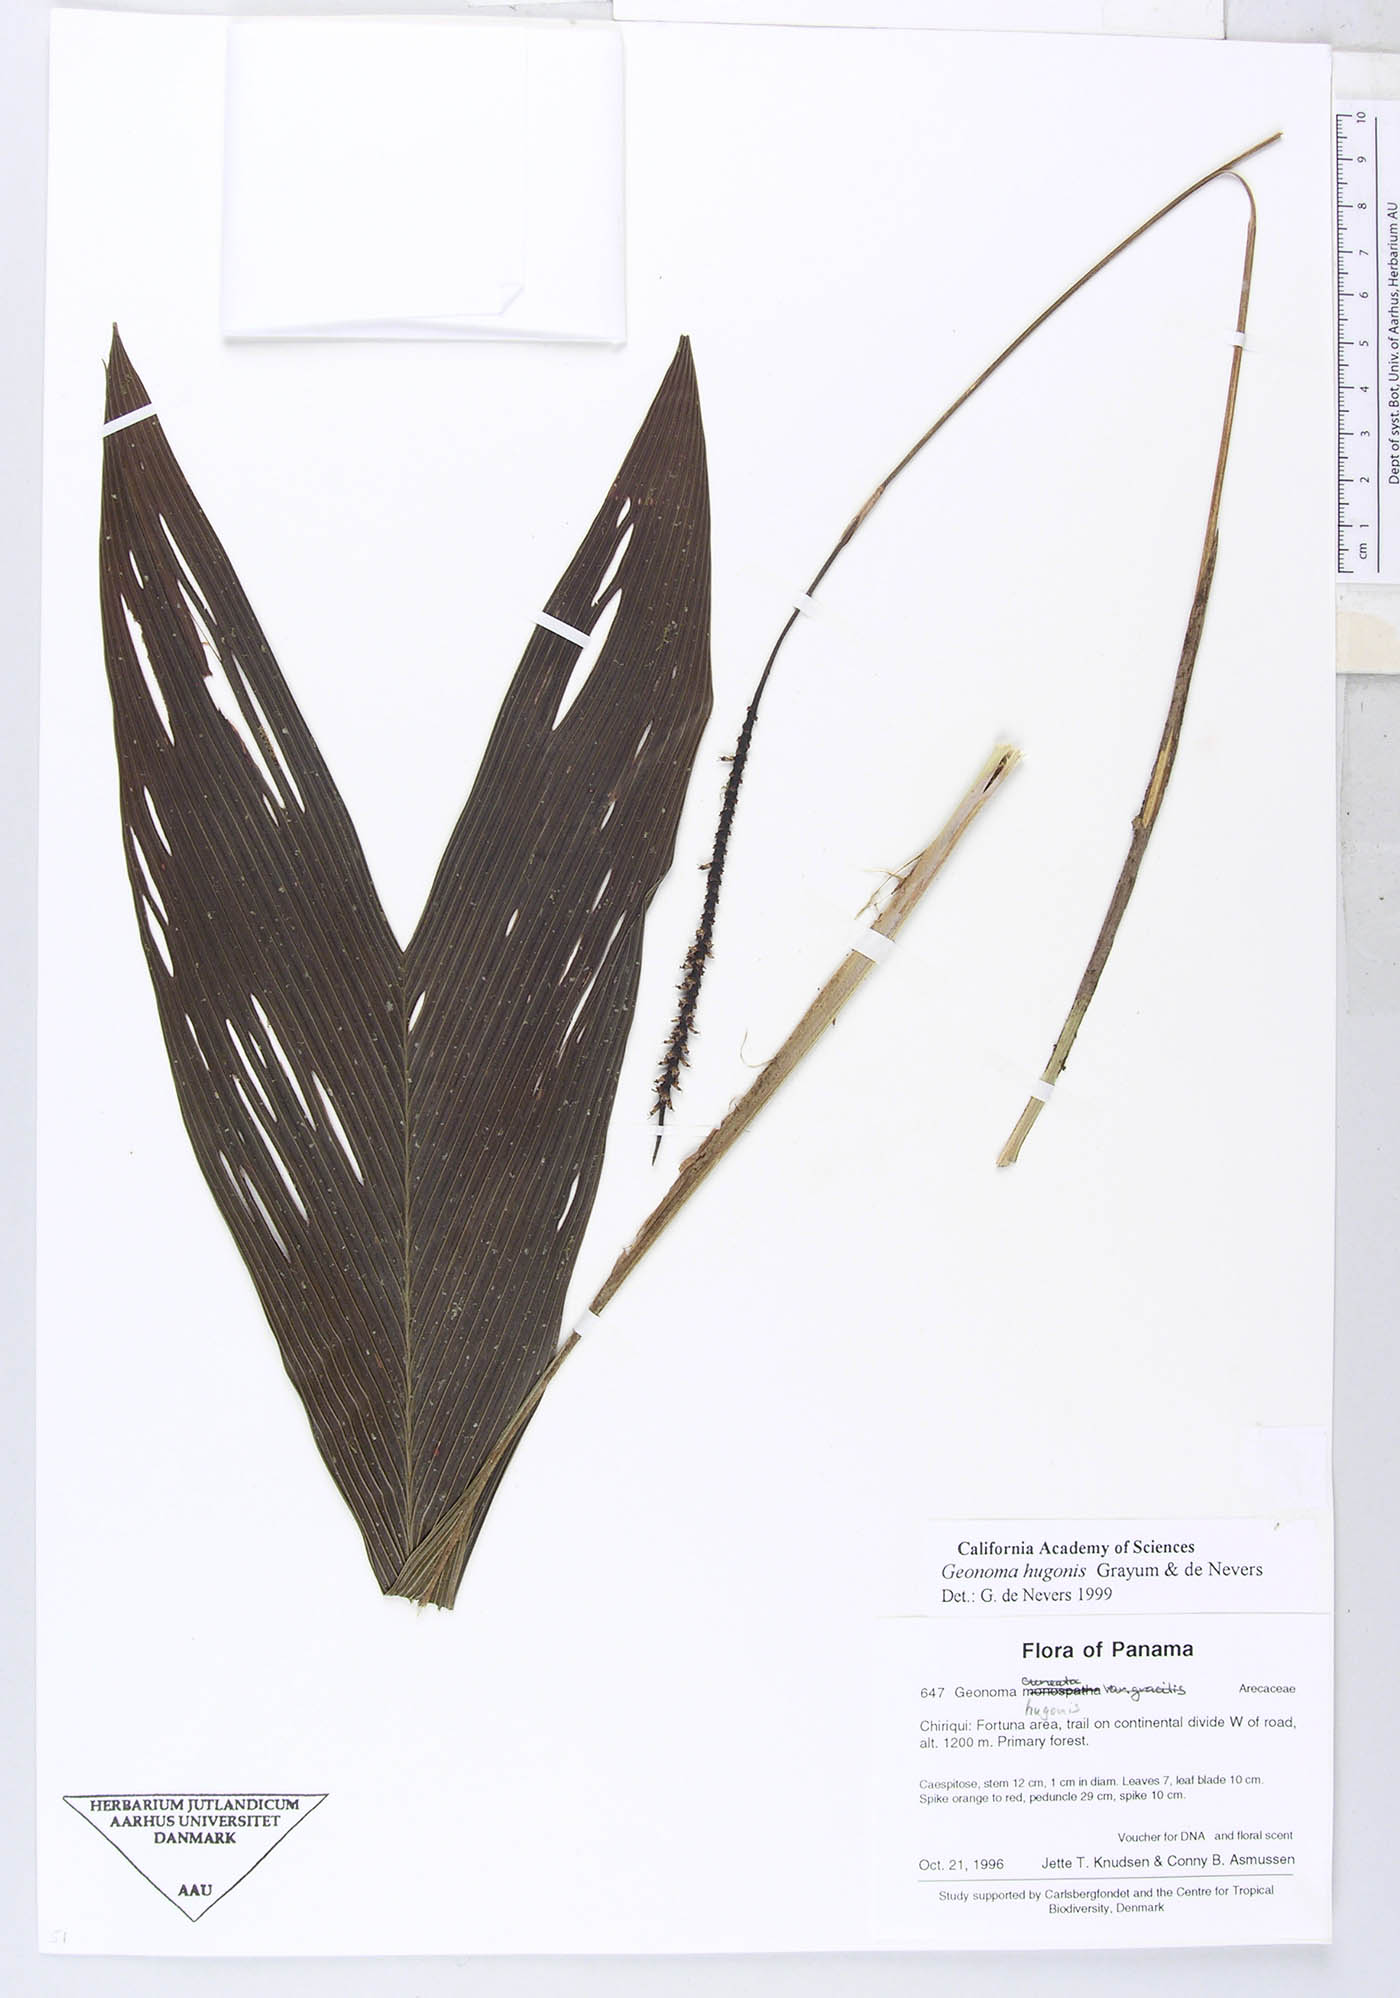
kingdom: Plantae
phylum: Tracheophyta
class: Liliopsida
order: Arecales
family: Arecaceae
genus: Geonoma
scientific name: Geonoma hugonis
